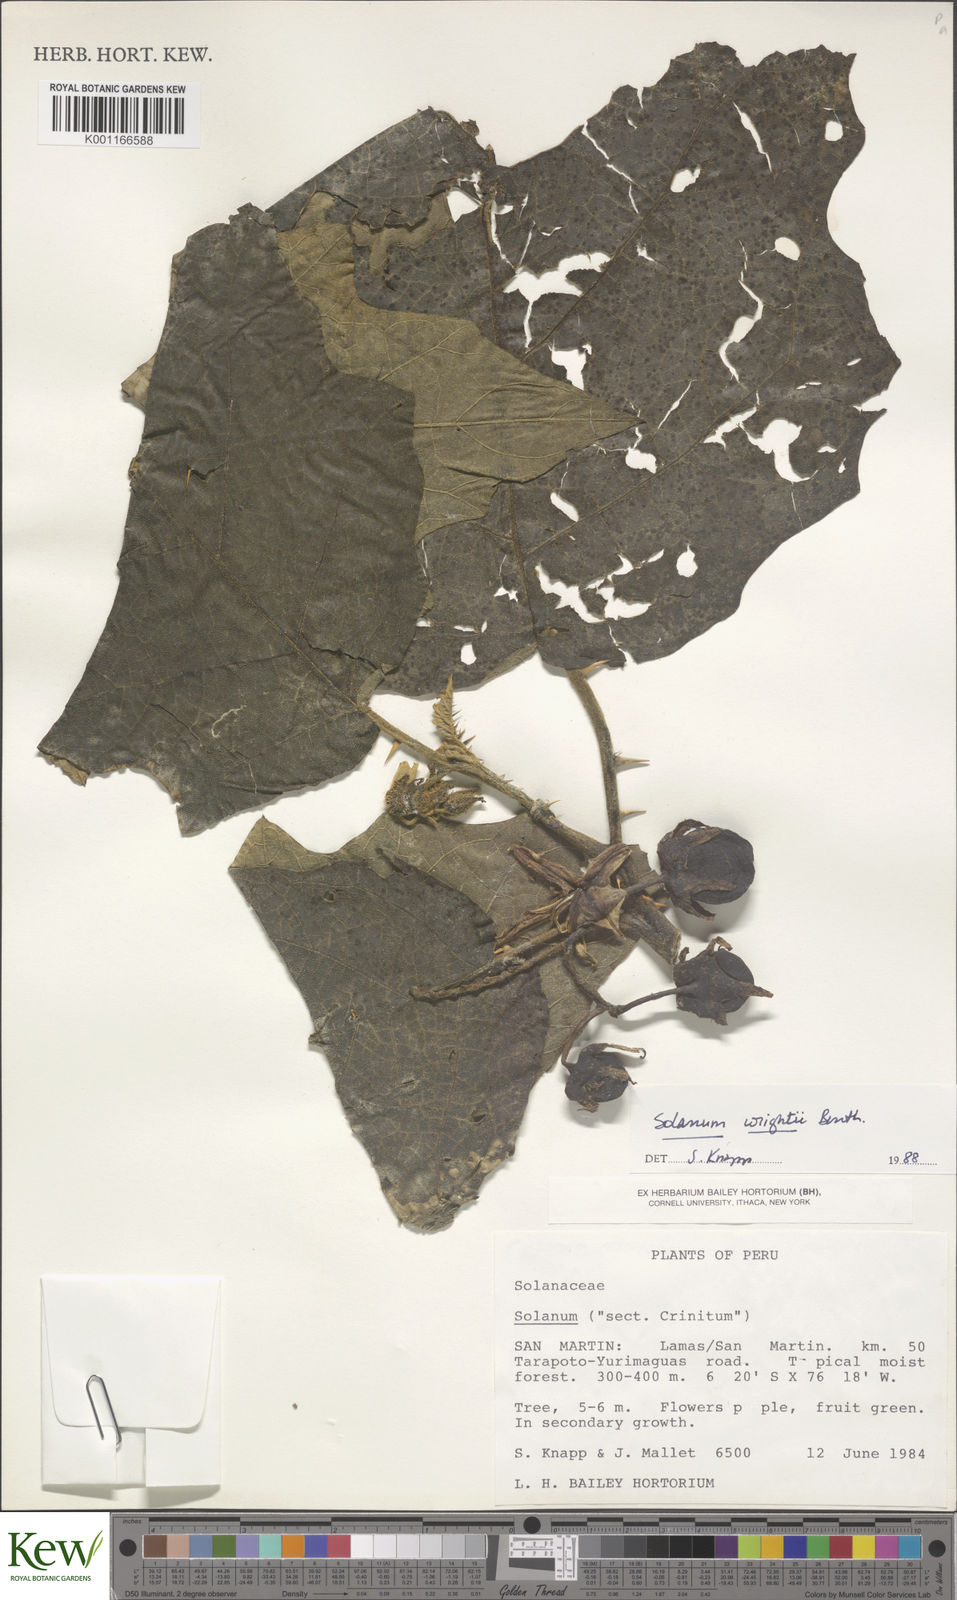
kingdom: Plantae
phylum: Tracheophyta
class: Magnoliopsida
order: Solanales
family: Solanaceae
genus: Solanum
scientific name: Solanum wrightii
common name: Brazilian potato-tree
